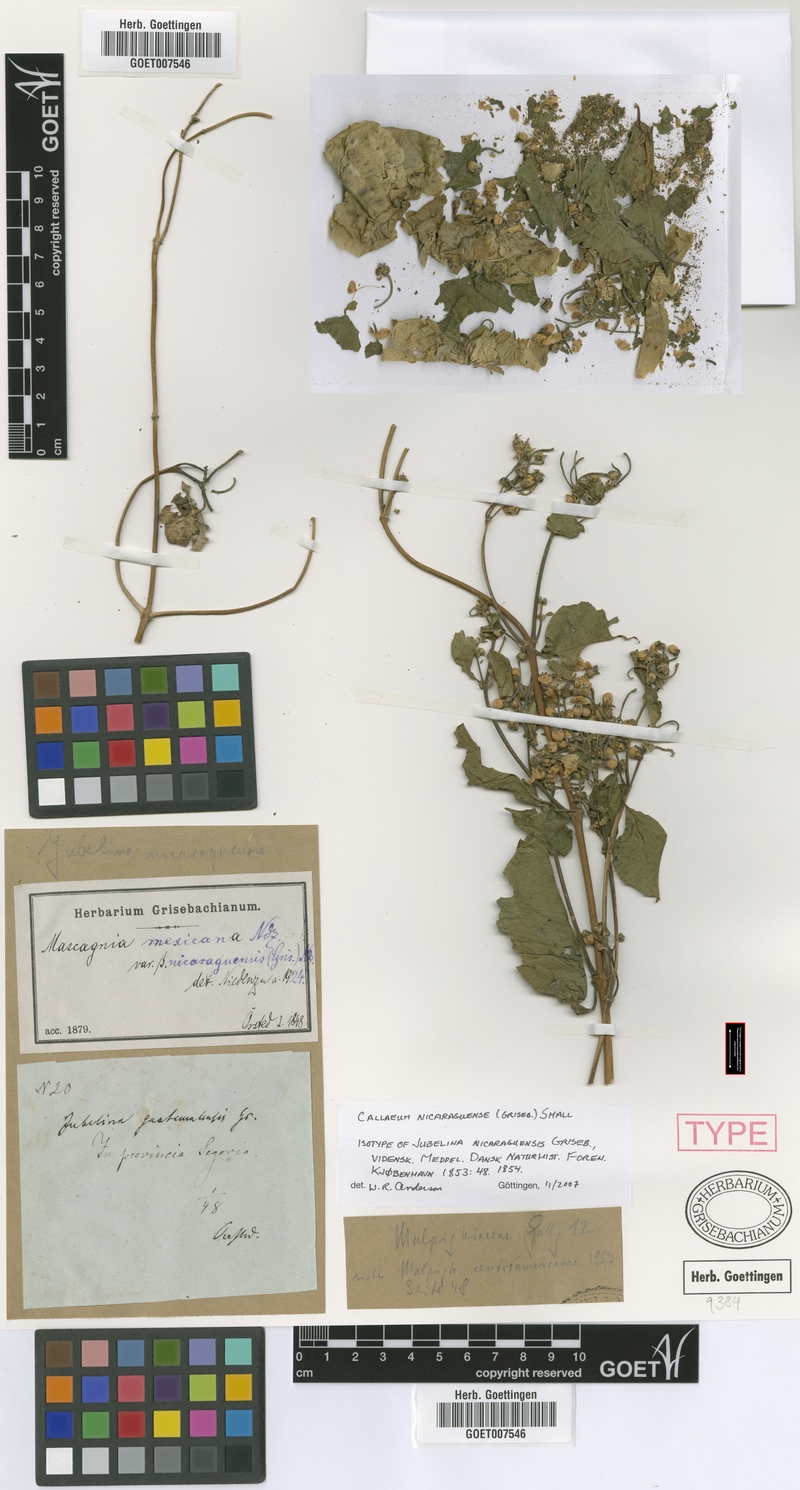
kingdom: Plantae
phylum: Tracheophyta
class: Magnoliopsida
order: Malpighiales
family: Malpighiaceae
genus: Callaeum
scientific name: Callaeum nicaraguense
